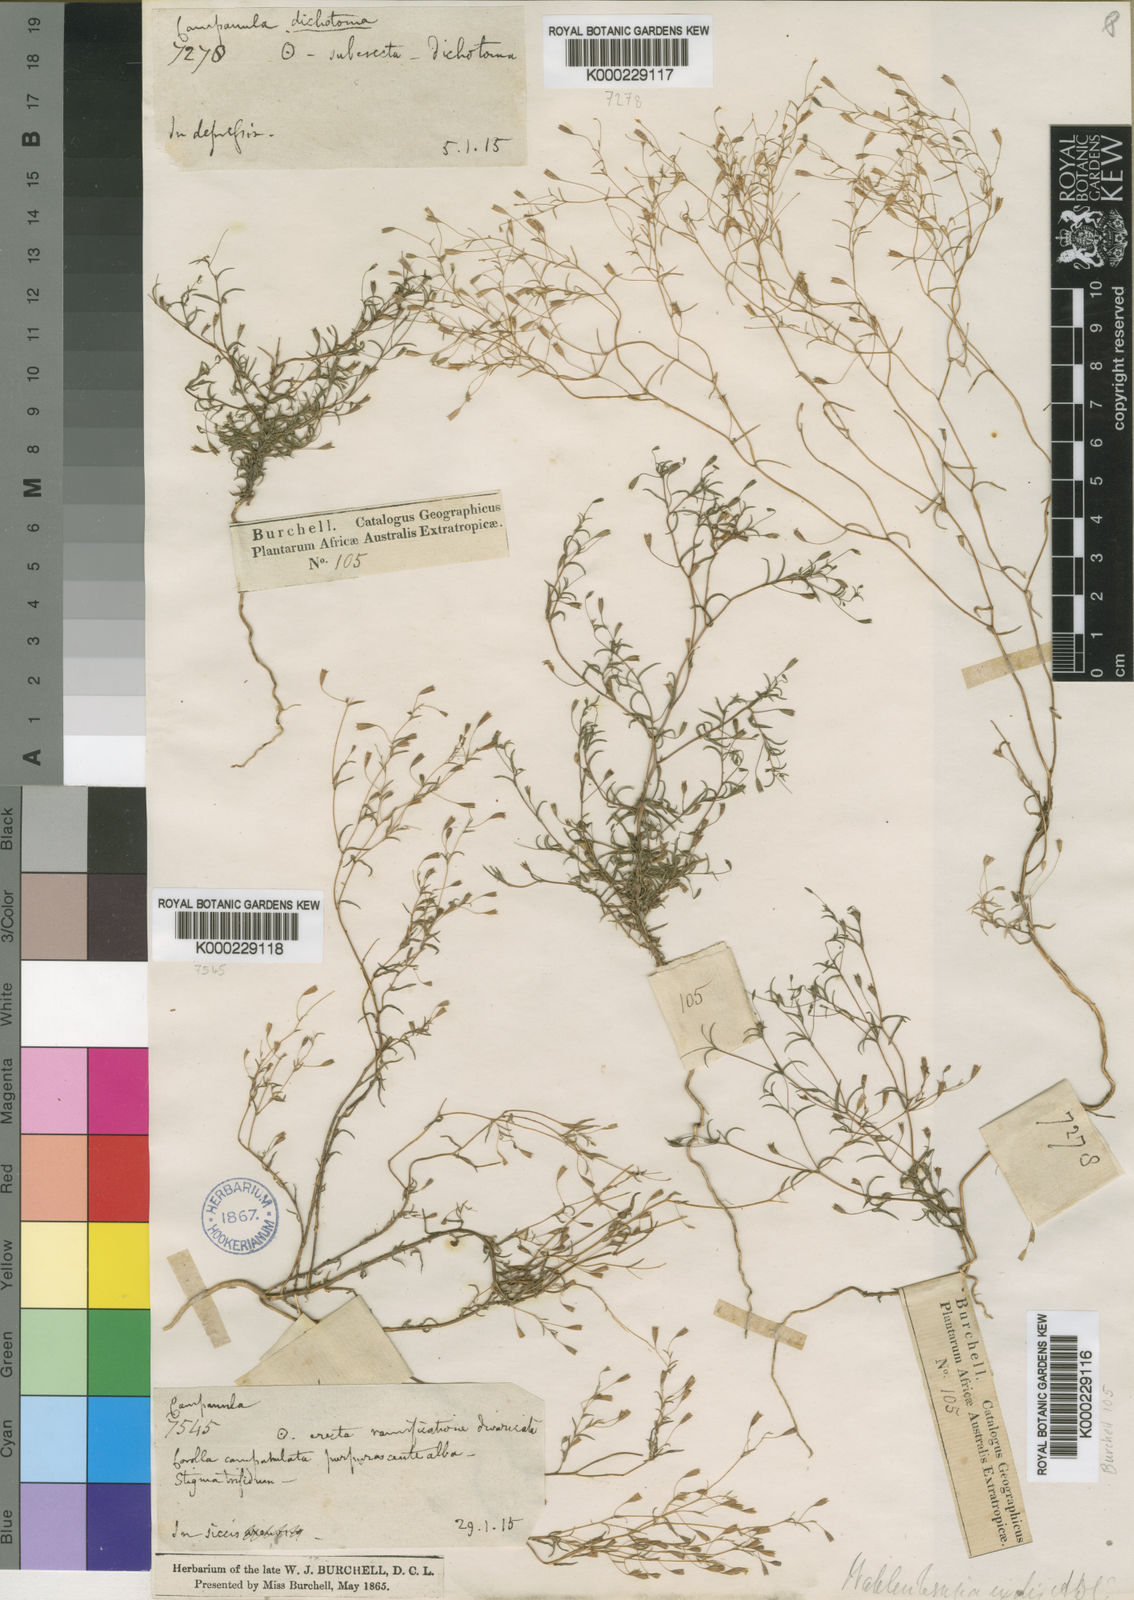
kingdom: Plantae
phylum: Tracheophyta
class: Magnoliopsida
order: Asterales
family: Campanulaceae
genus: Wahlenbergia
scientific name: Wahlenbergia exilis
